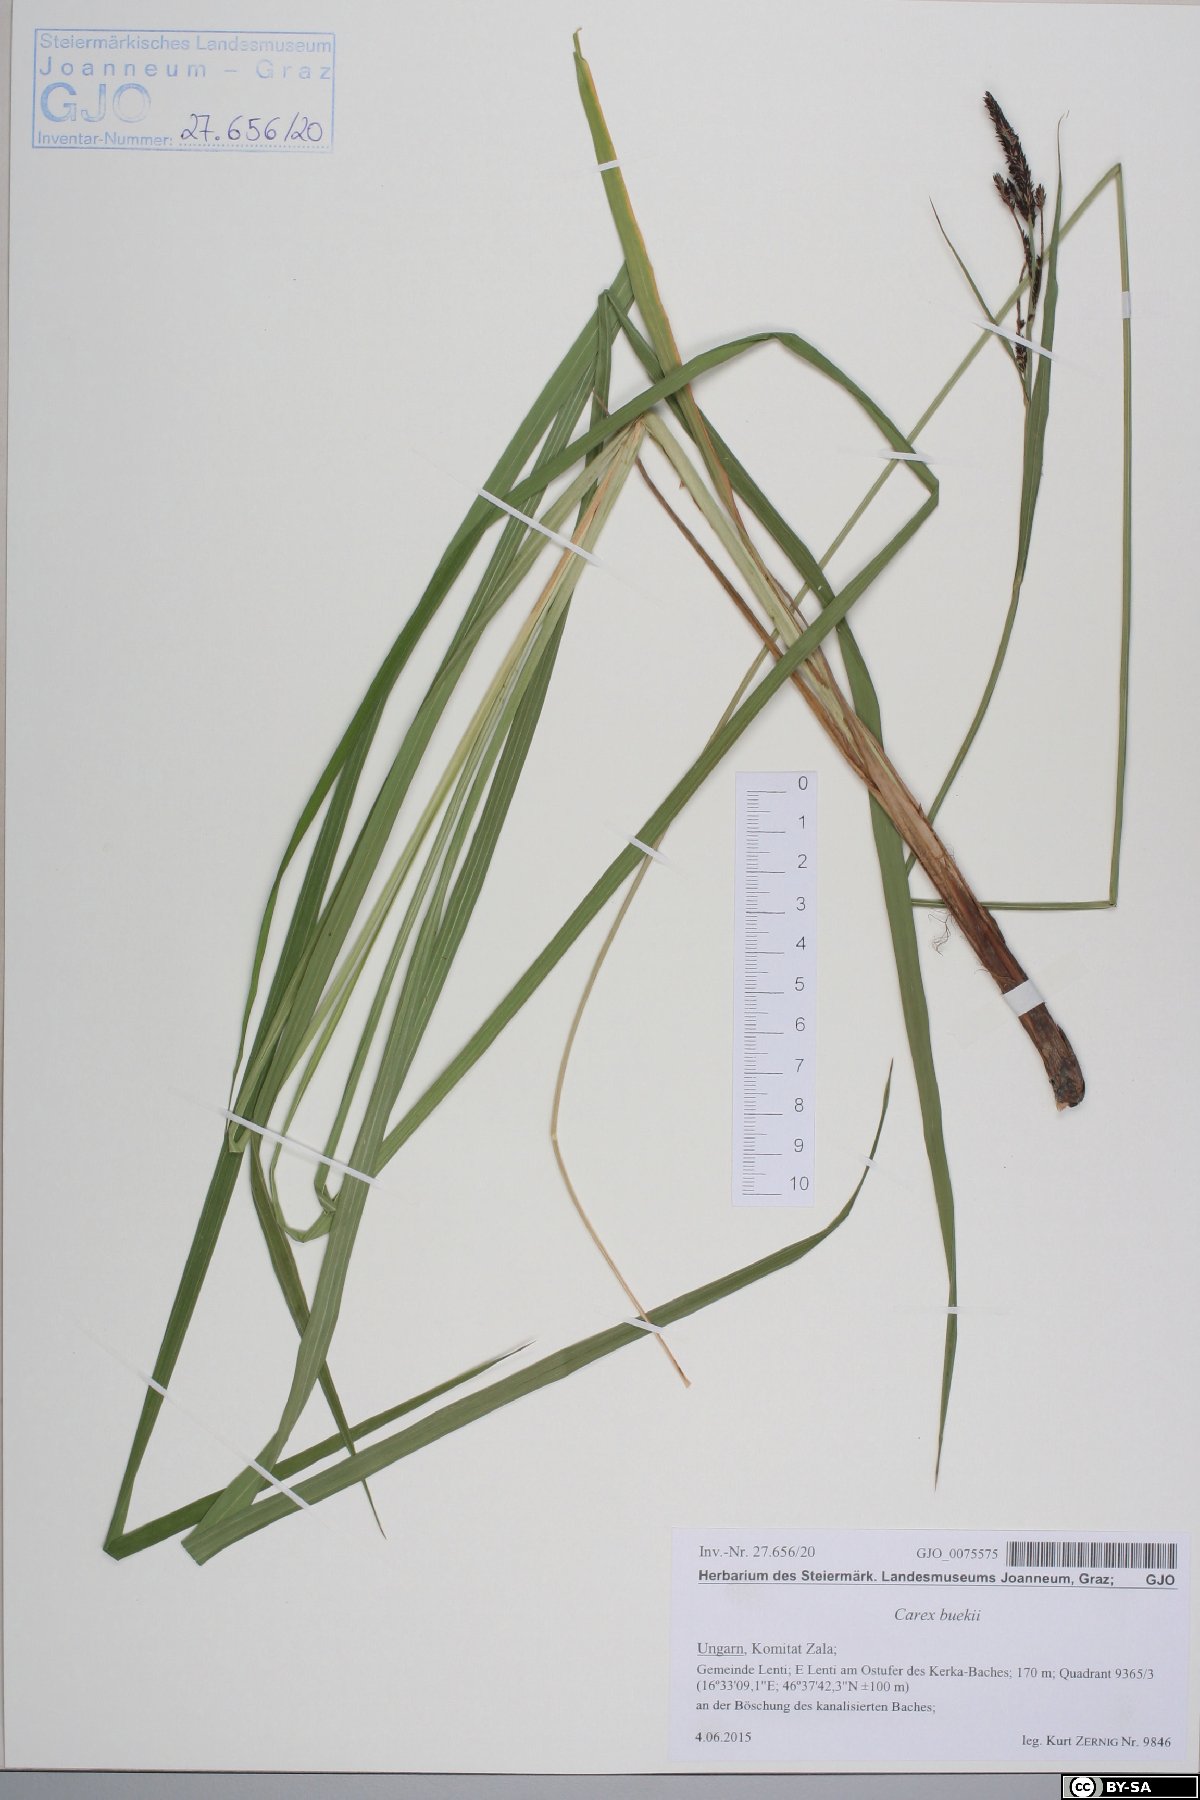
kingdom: Plantae
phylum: Tracheophyta
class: Liliopsida
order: Poales
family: Cyperaceae
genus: Carex
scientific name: Carex buekii
